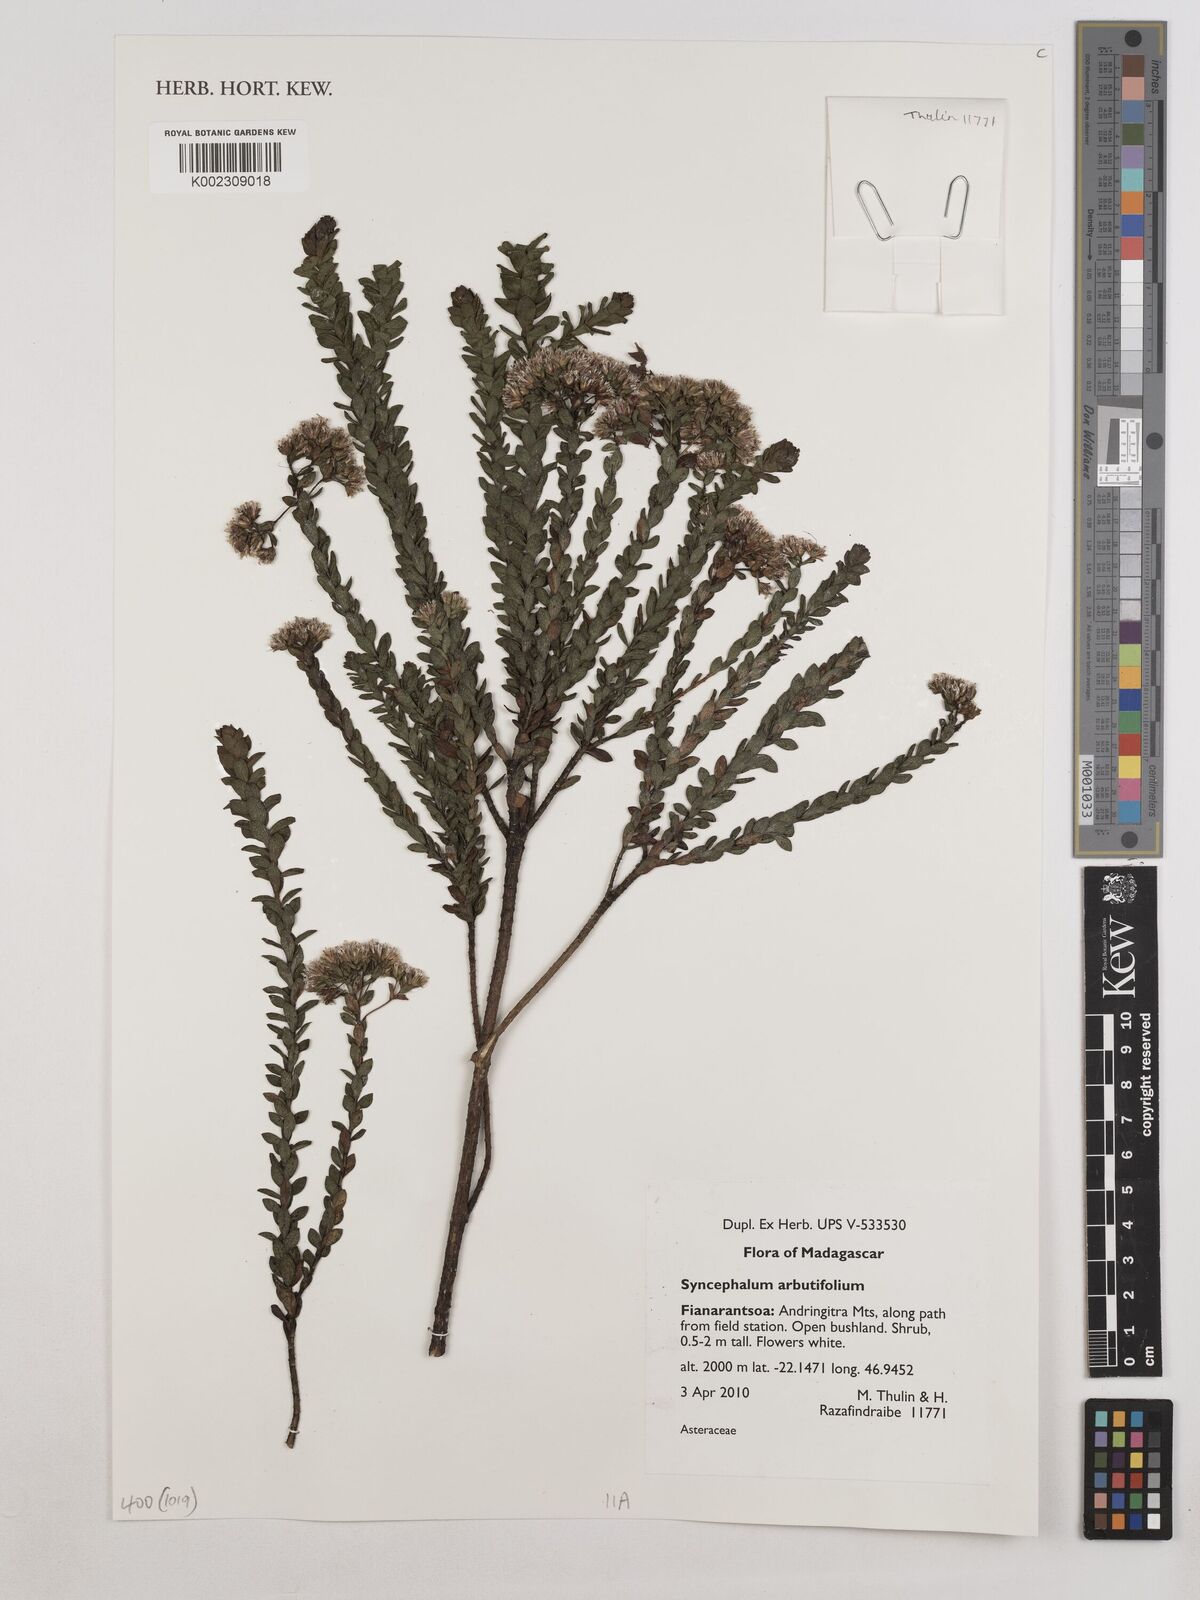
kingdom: Plantae
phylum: Tracheophyta
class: Magnoliopsida
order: Asterales
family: Asteraceae
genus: Syncephalum
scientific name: Syncephalum arbutifolium
